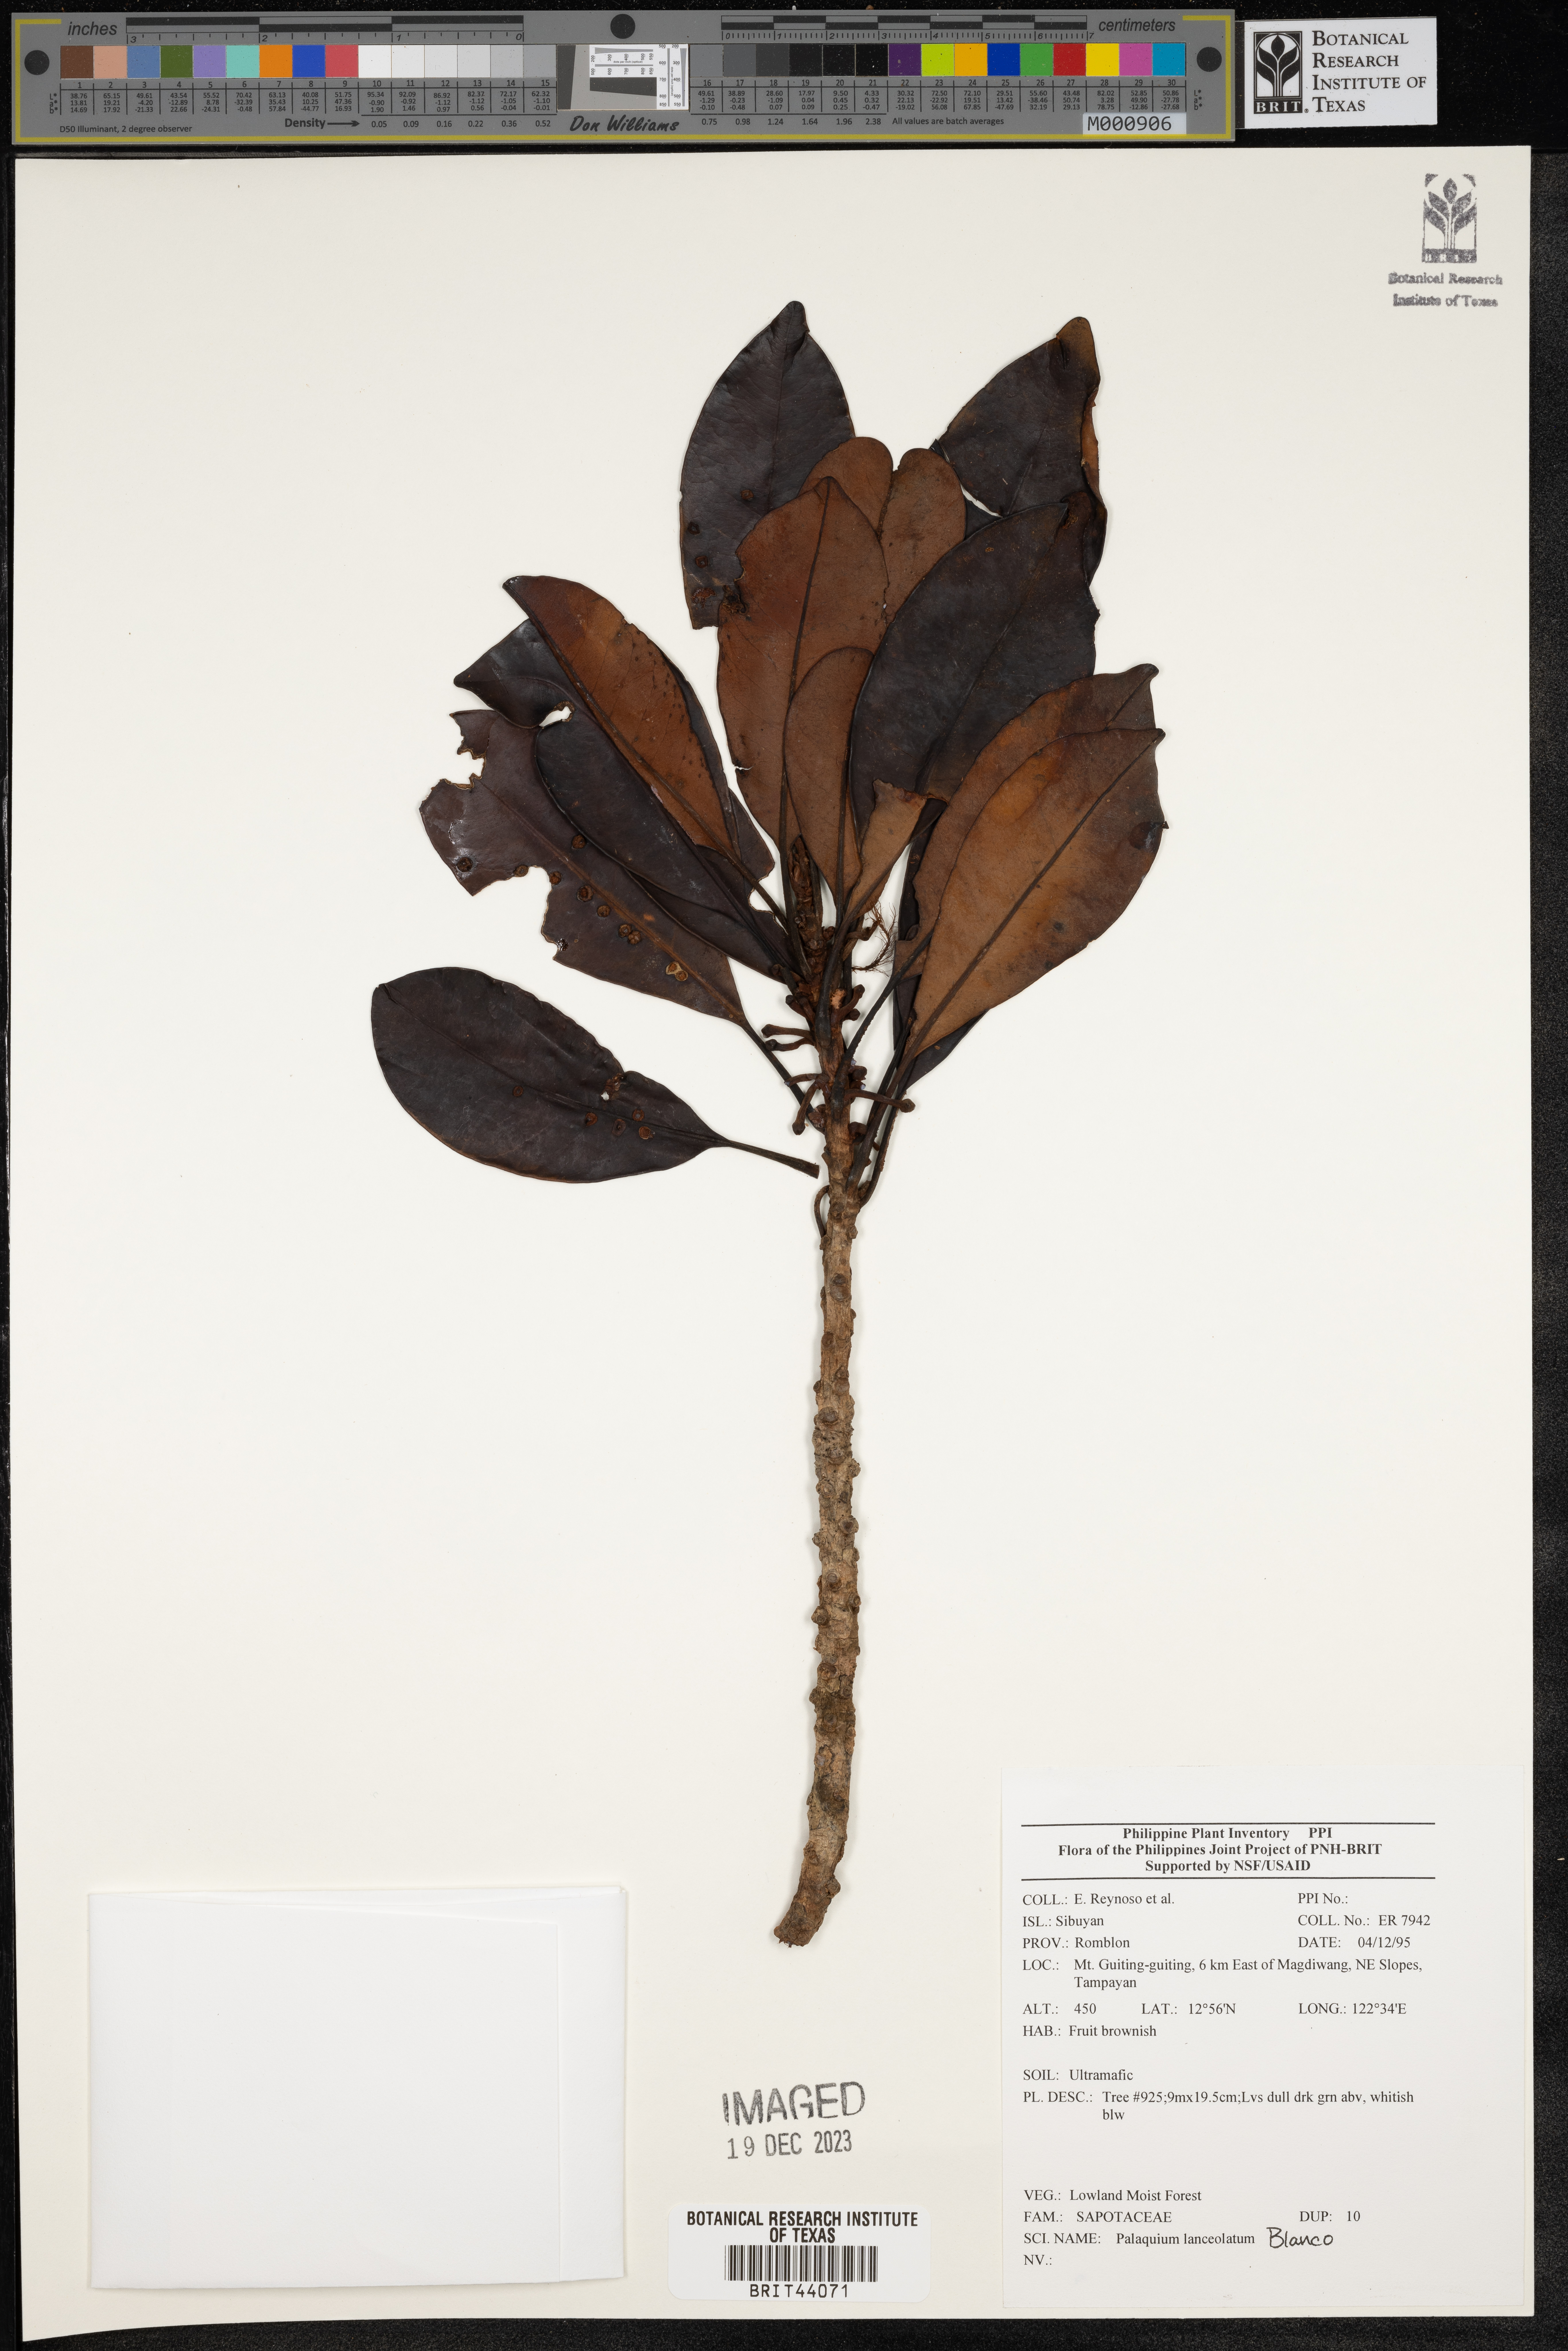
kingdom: Plantae
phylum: Tracheophyta
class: Magnoliopsida
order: Ericales
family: Sapotaceae
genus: Palaquium
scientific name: Palaquium lanceolatum
